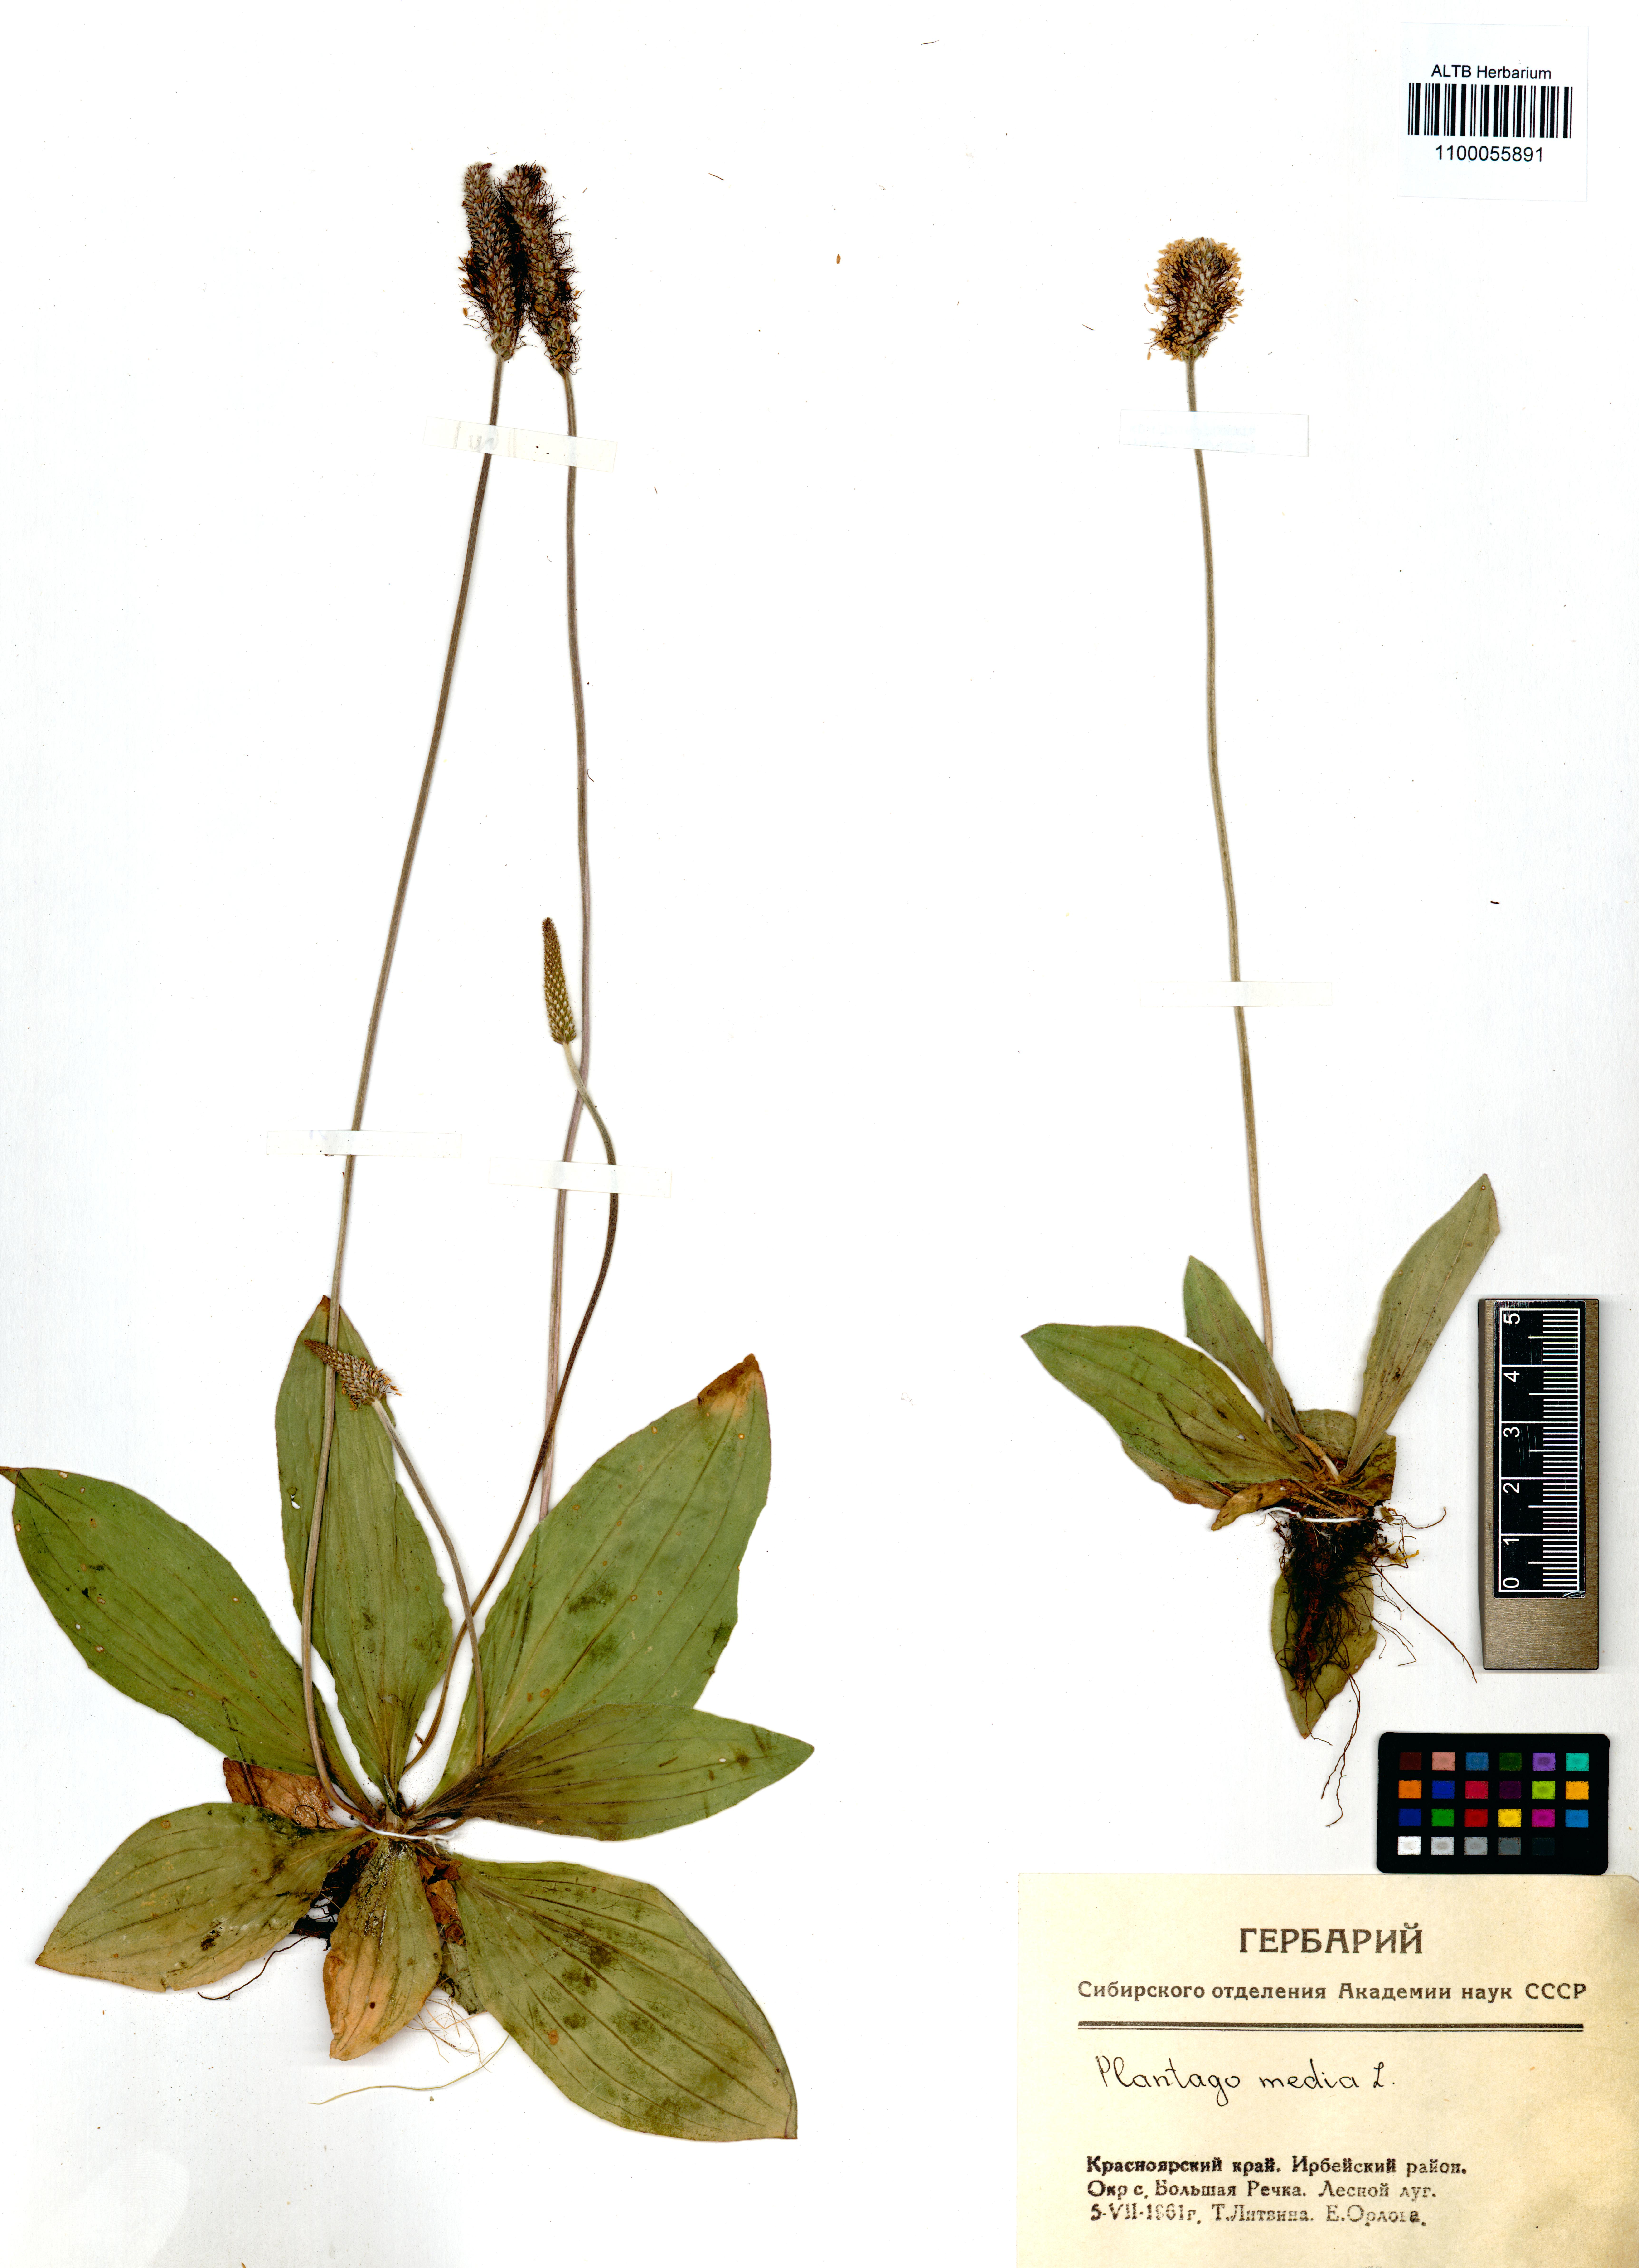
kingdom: Plantae
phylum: Tracheophyta
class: Magnoliopsida
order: Lamiales
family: Plantaginaceae
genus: Plantago
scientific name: Plantago media
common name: Hoary plantain
